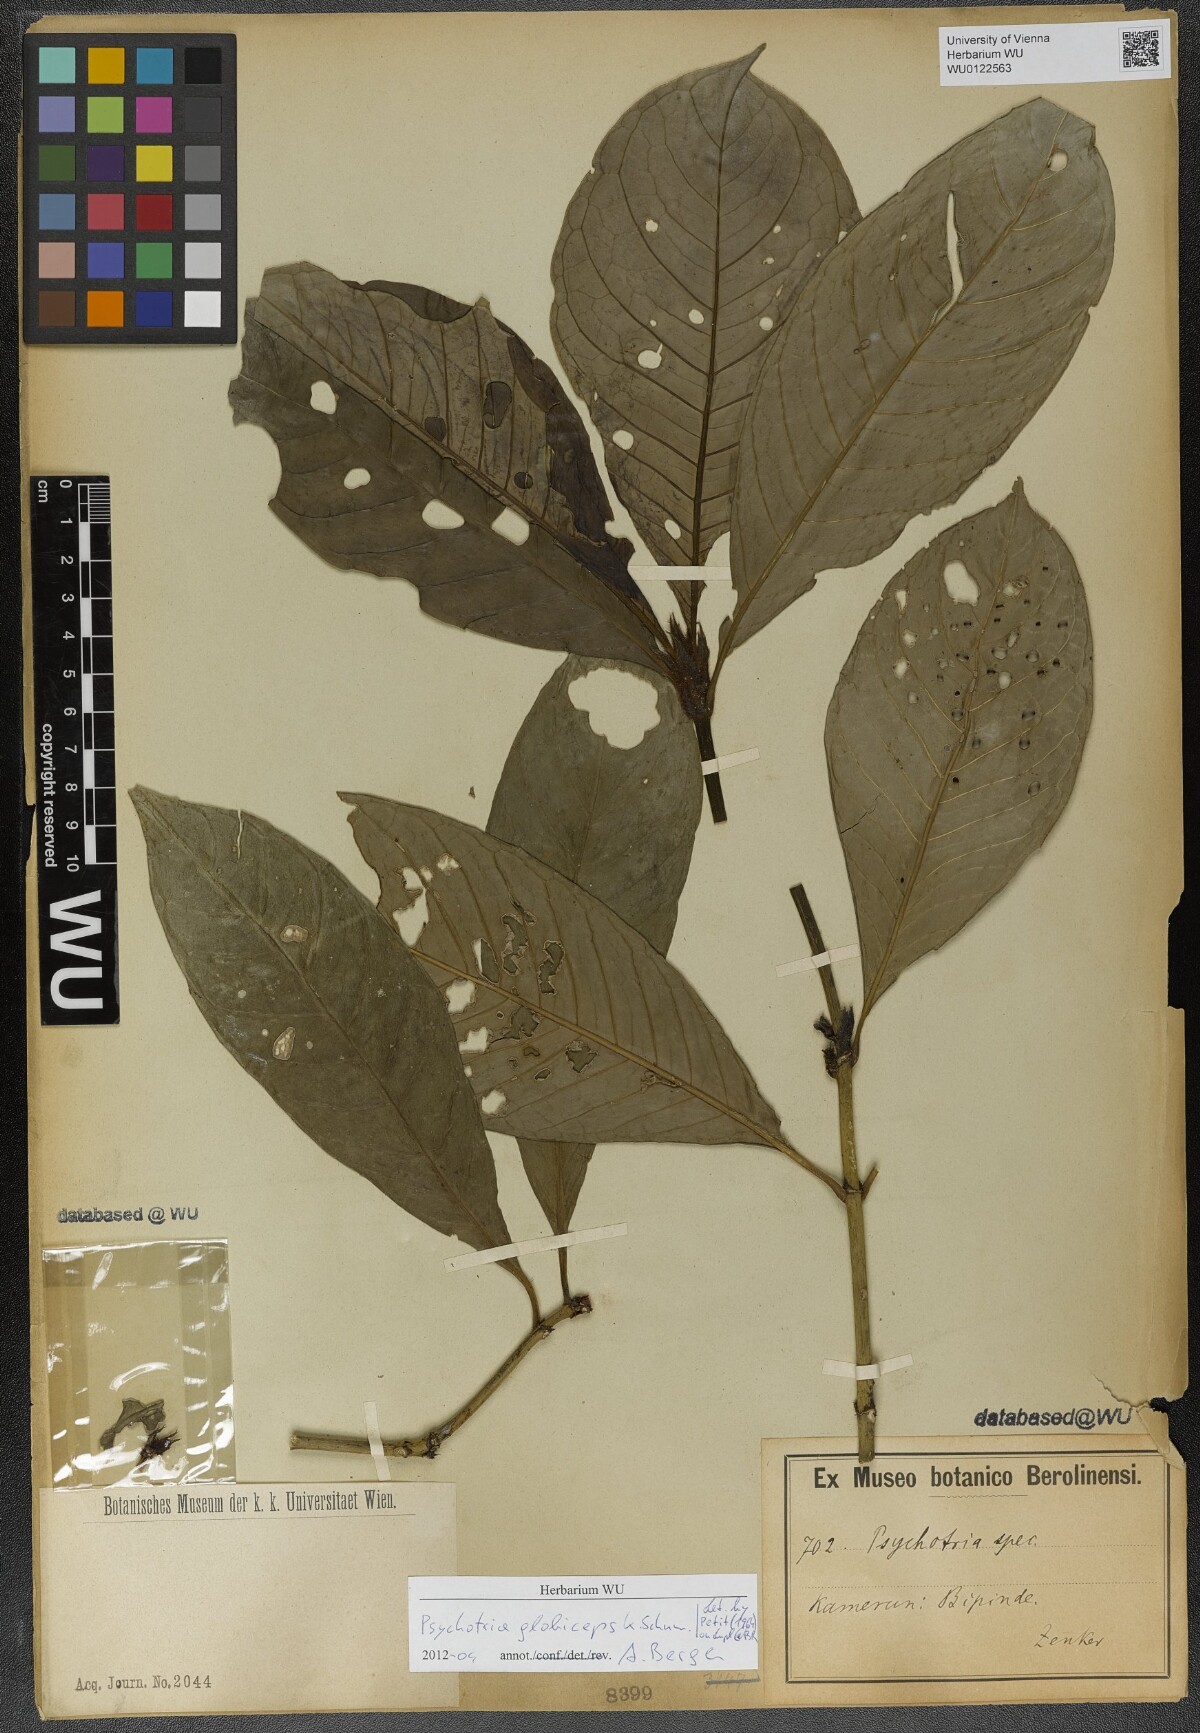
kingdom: Plantae
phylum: Tracheophyta
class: Magnoliopsida
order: Gentianales
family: Rubiaceae
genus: Psychotria
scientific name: Psychotria globiceps
